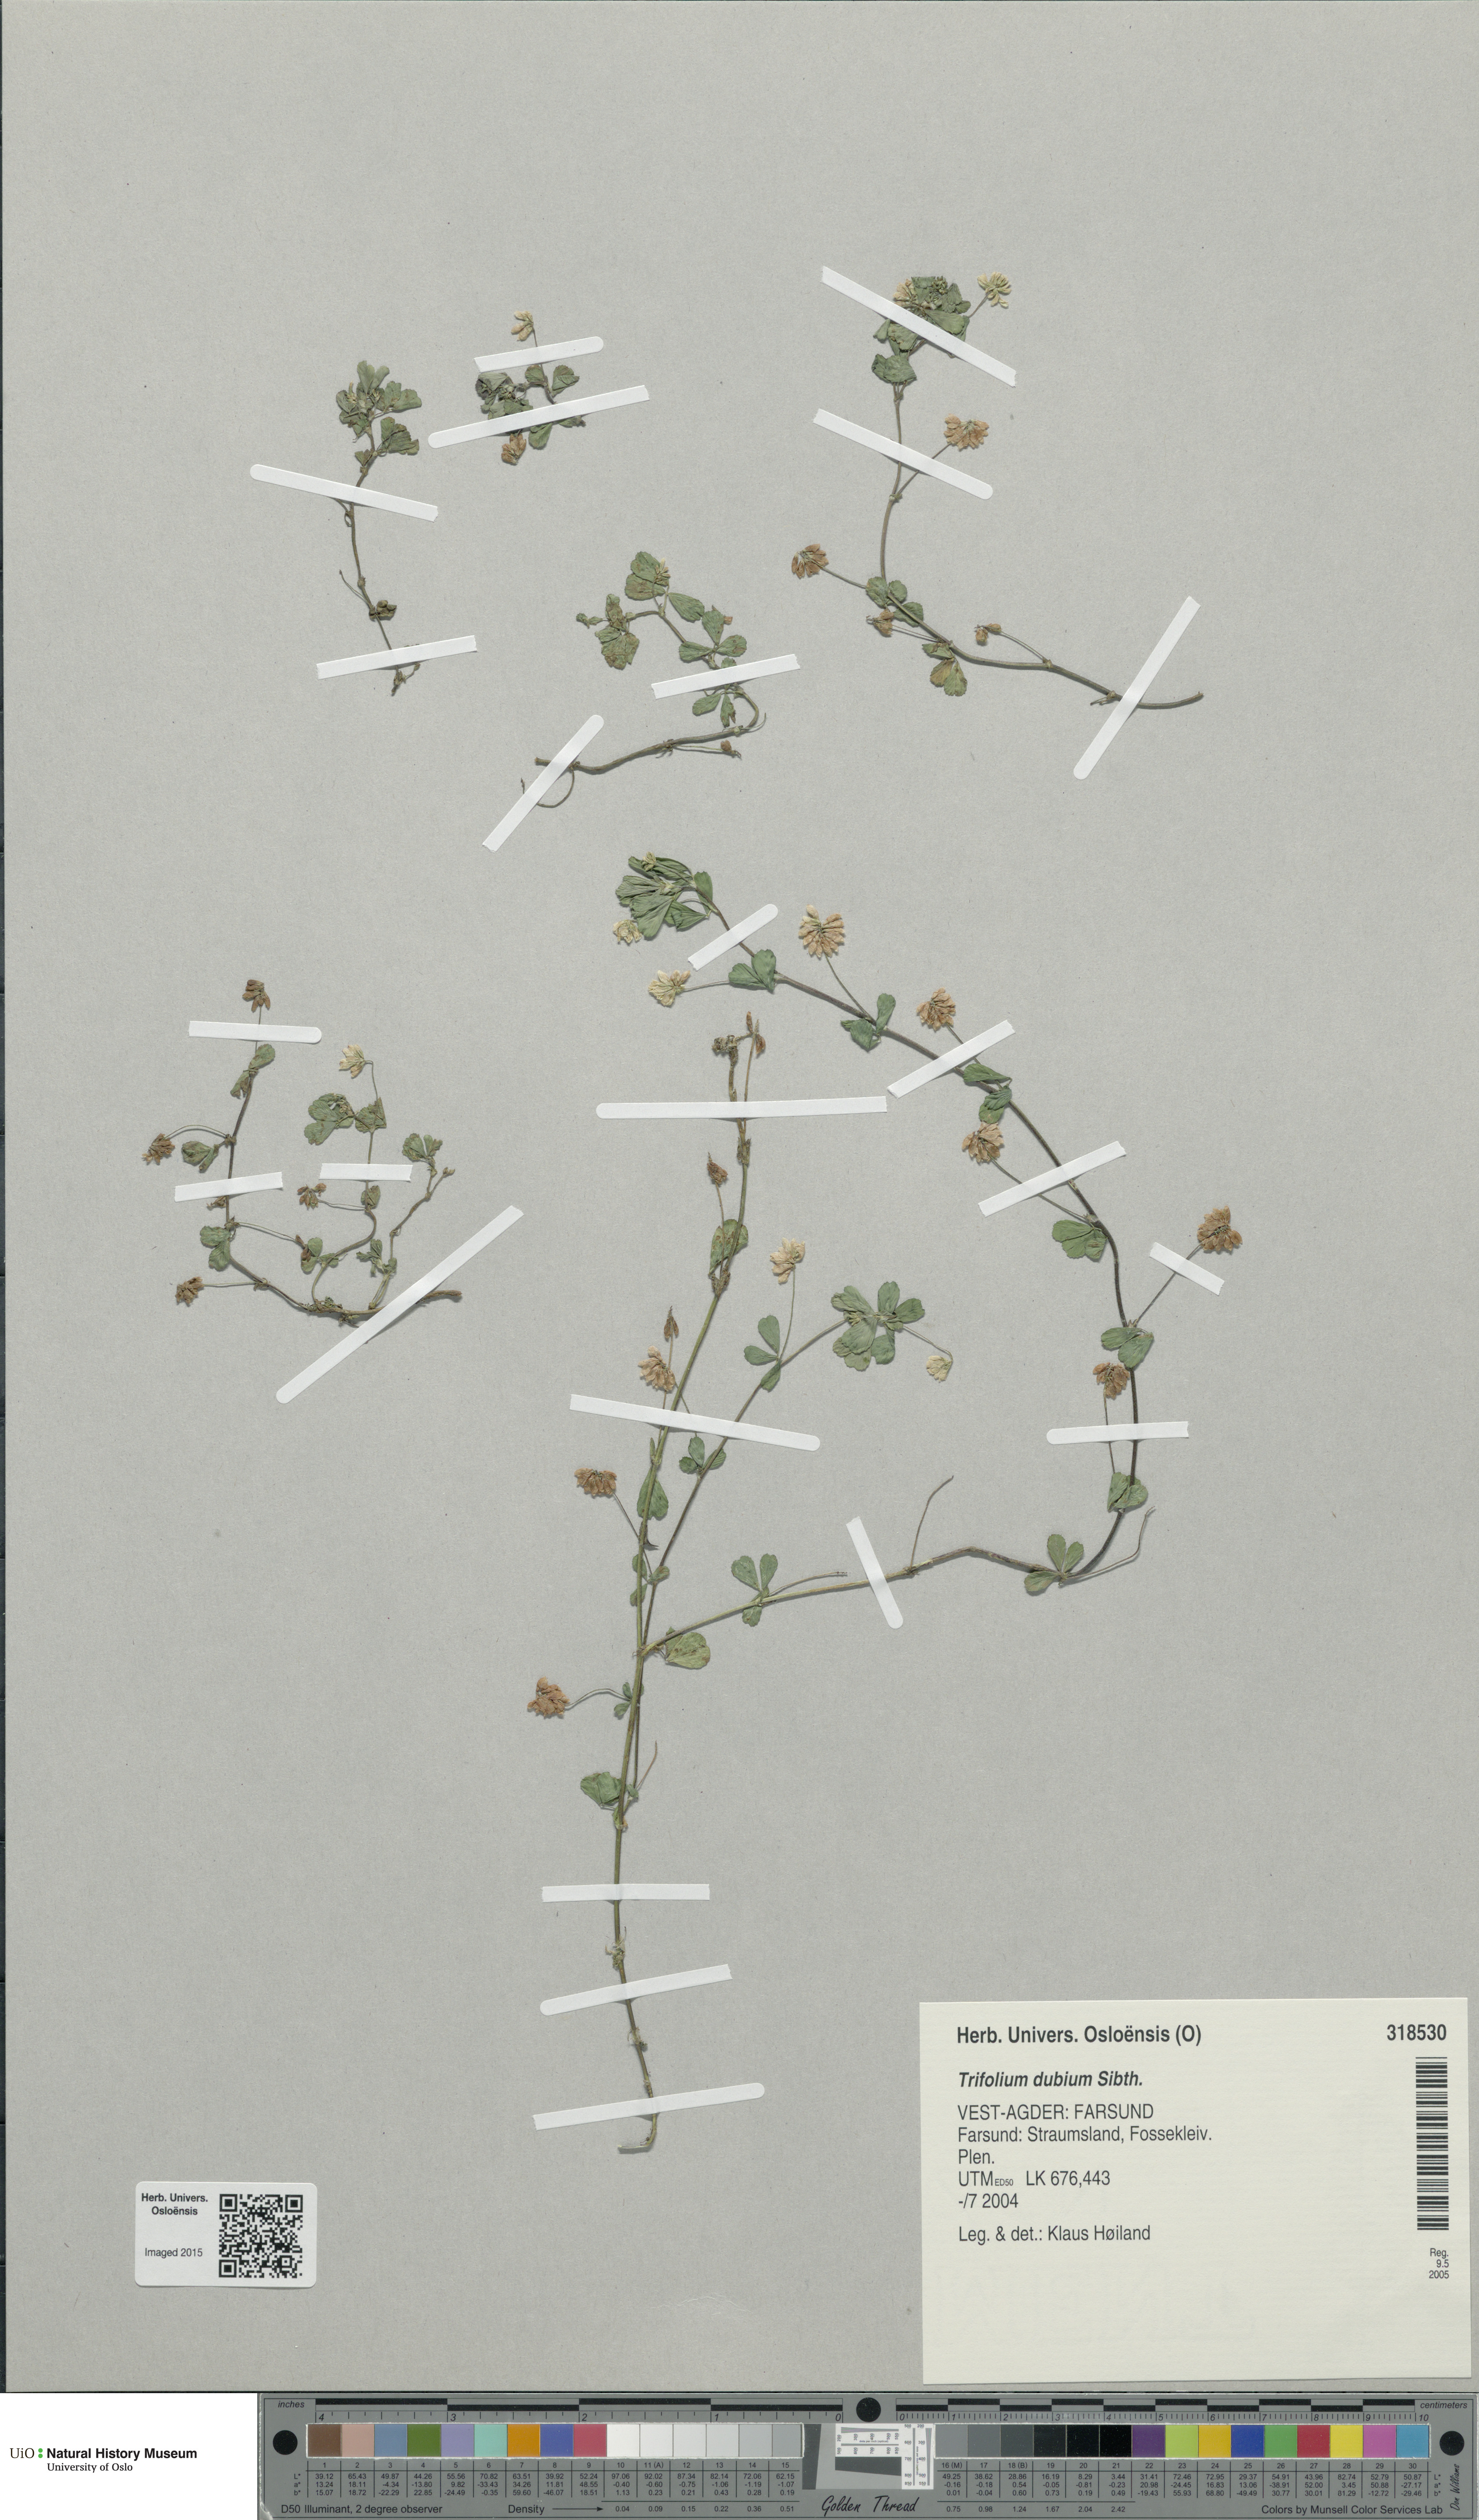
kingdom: Plantae
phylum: Tracheophyta
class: Magnoliopsida
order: Fabales
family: Fabaceae
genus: Trifolium
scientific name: Trifolium dubium
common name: Suckling clover
